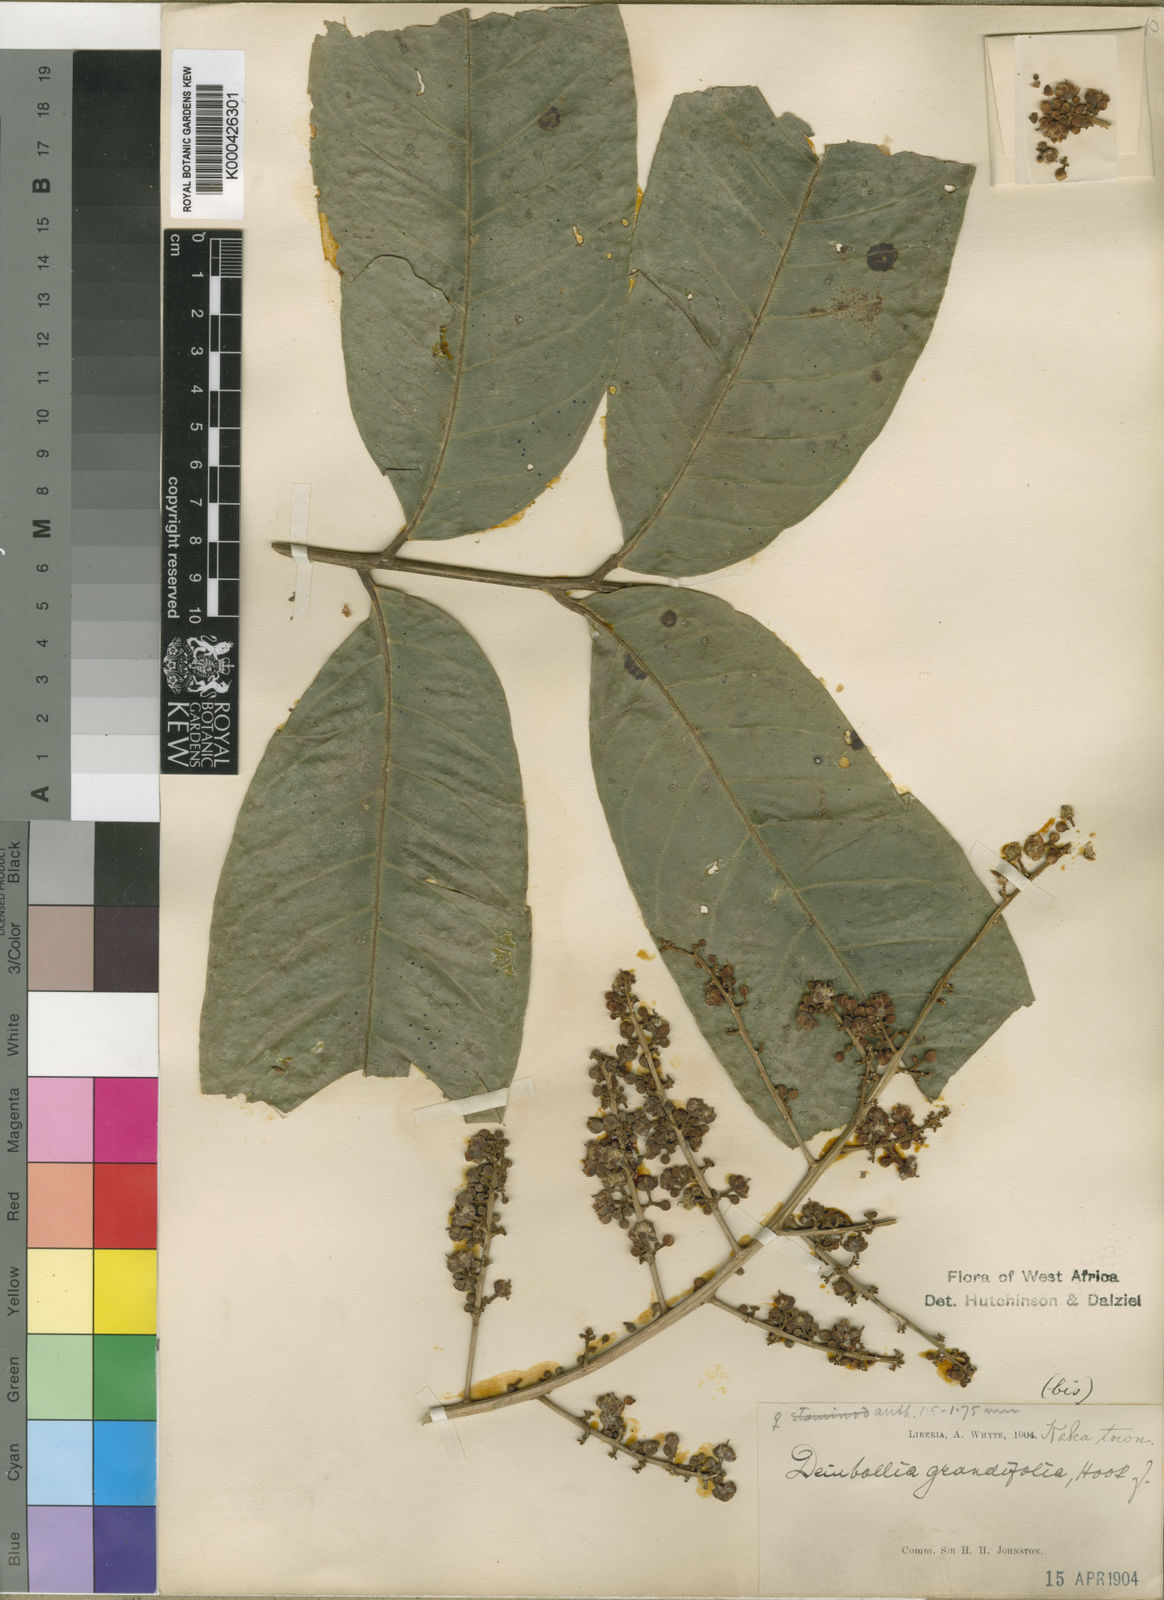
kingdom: Plantae
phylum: Tracheophyta
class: Magnoliopsida
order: Sapindales
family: Sapindaceae
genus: Deinbollia
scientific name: Deinbollia grandifolia
